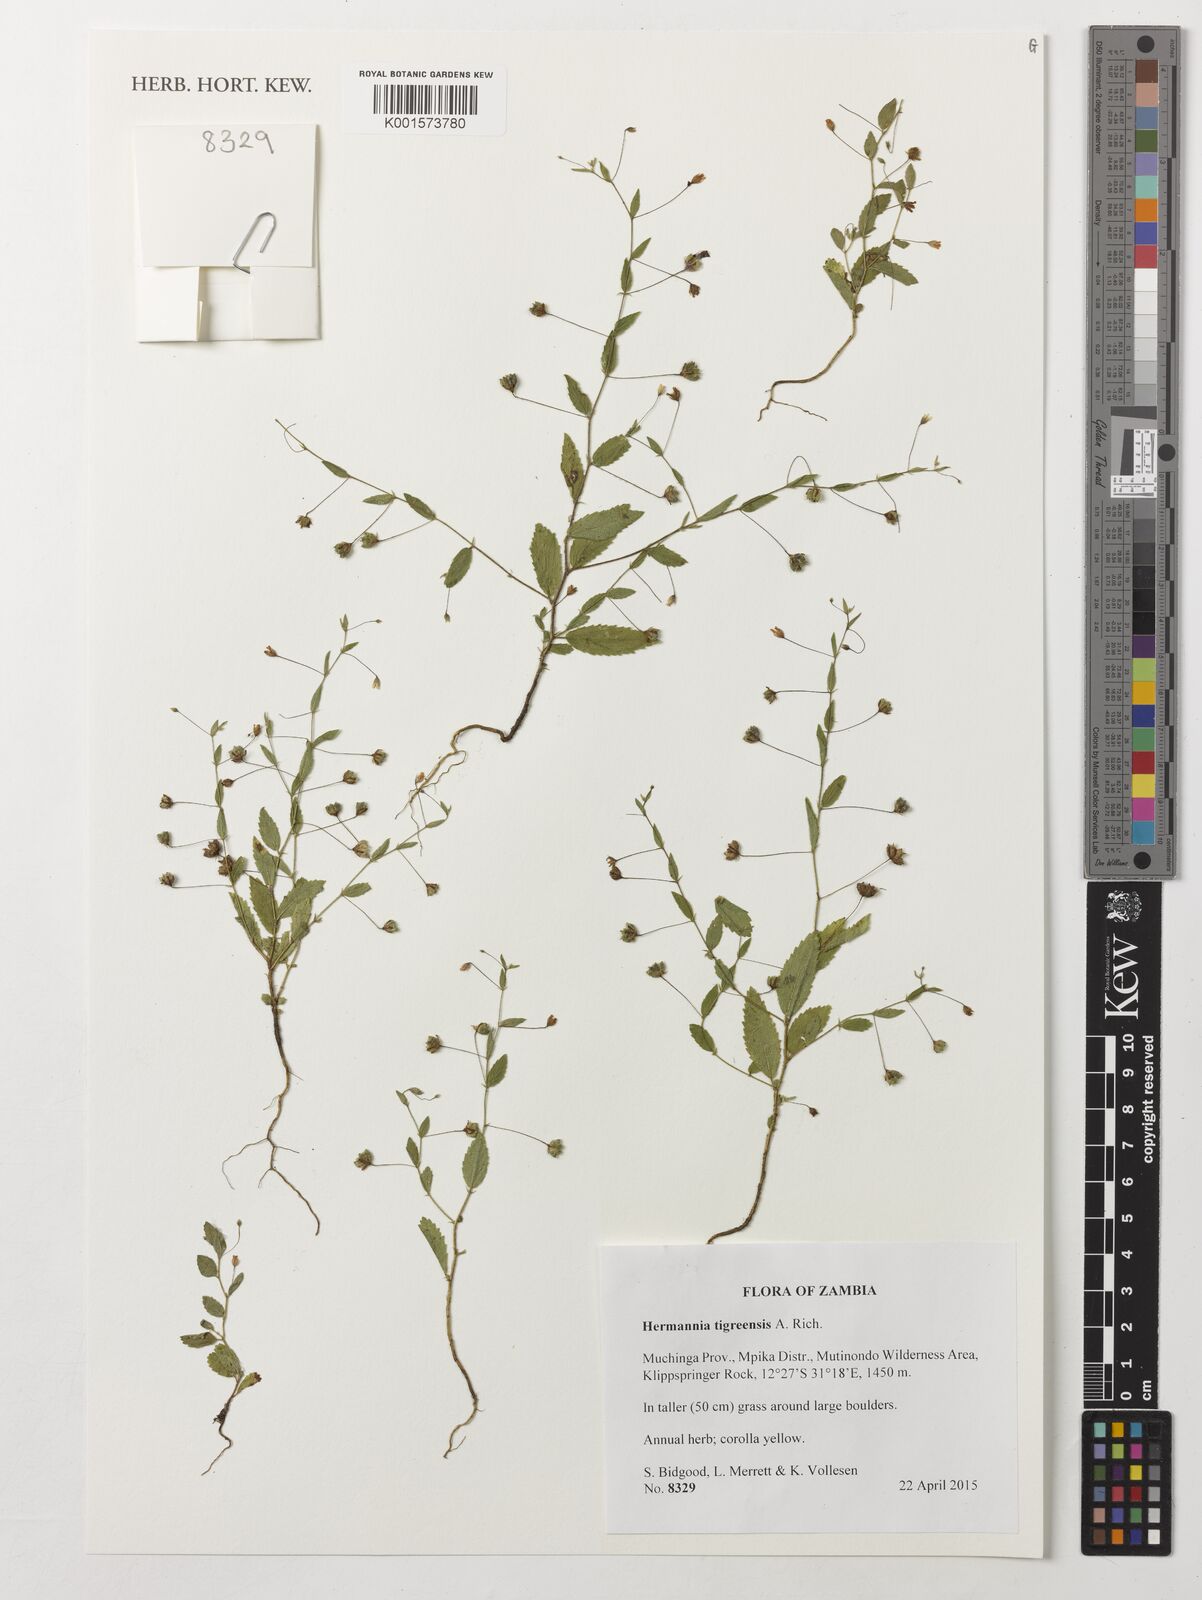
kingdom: Plantae
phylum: Tracheophyta
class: Magnoliopsida
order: Malvales
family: Malvaceae
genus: Hermannia
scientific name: Hermannia tigreensis
